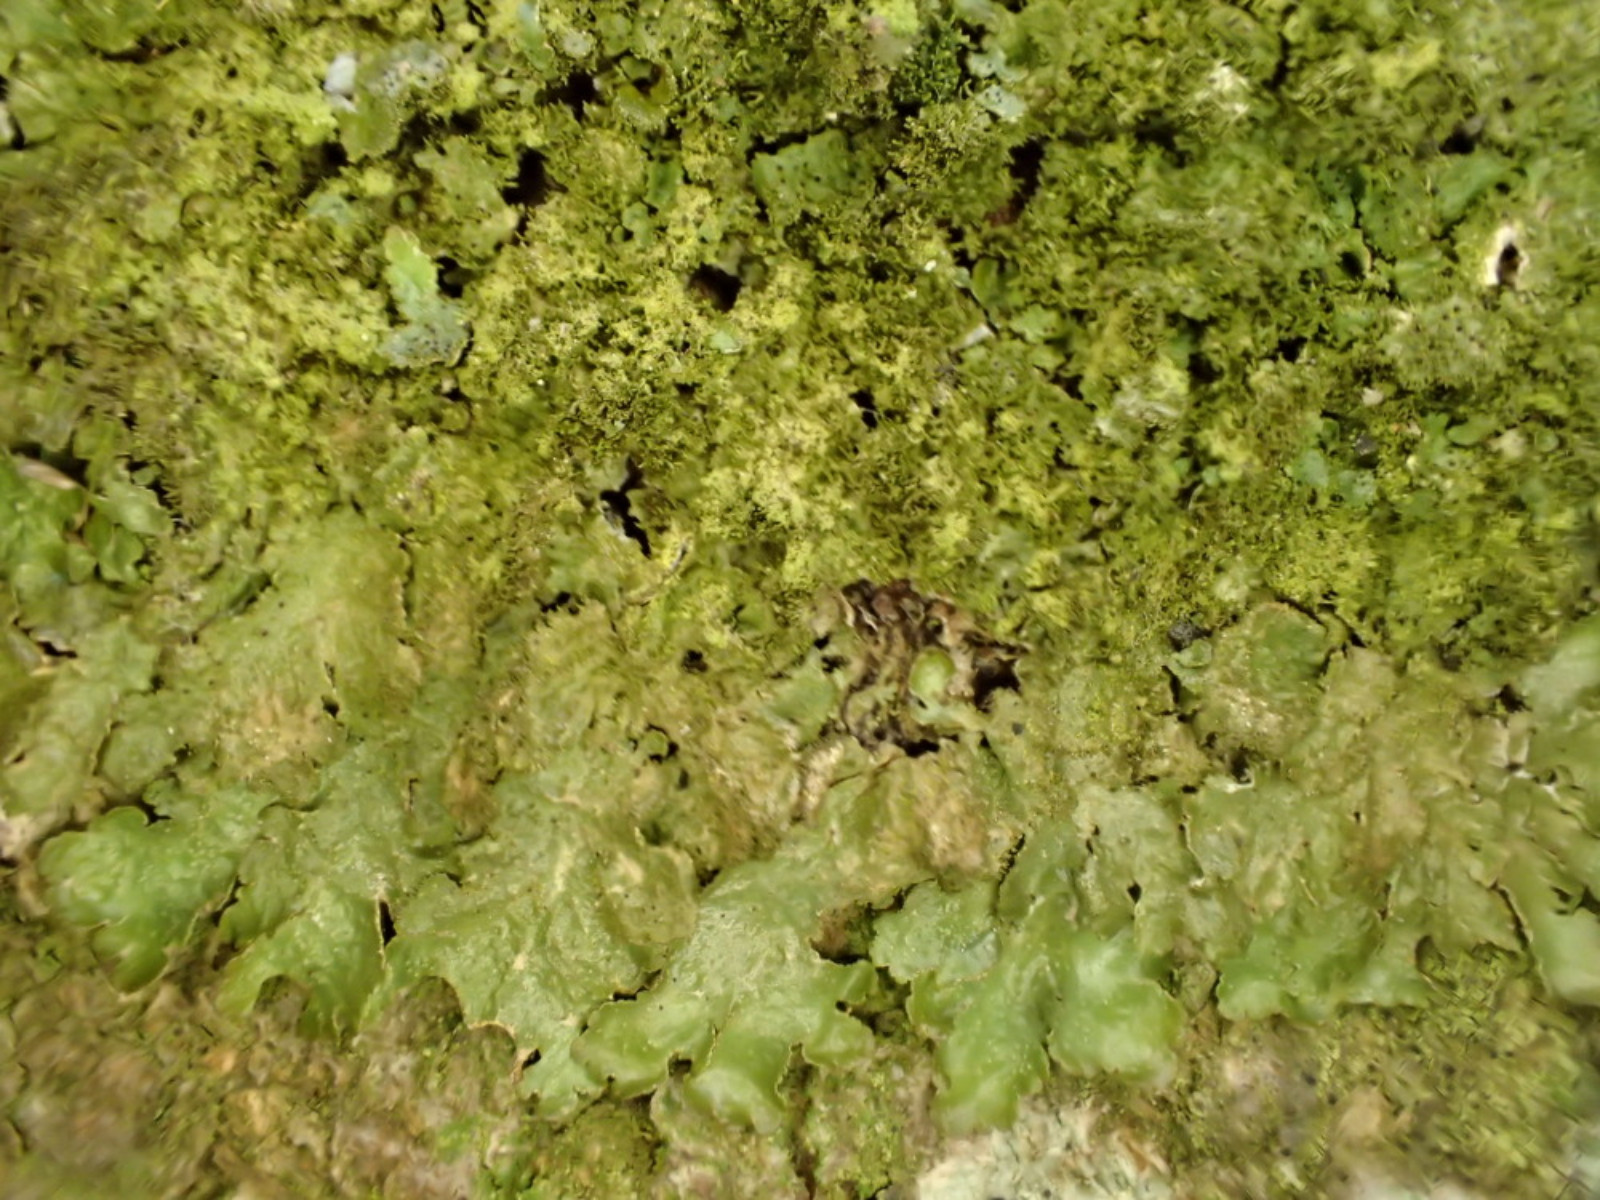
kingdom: Fungi
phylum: Ascomycota
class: Lecanoromycetes
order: Lecanorales
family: Parmeliaceae
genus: Melanelixia
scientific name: Melanelixia
